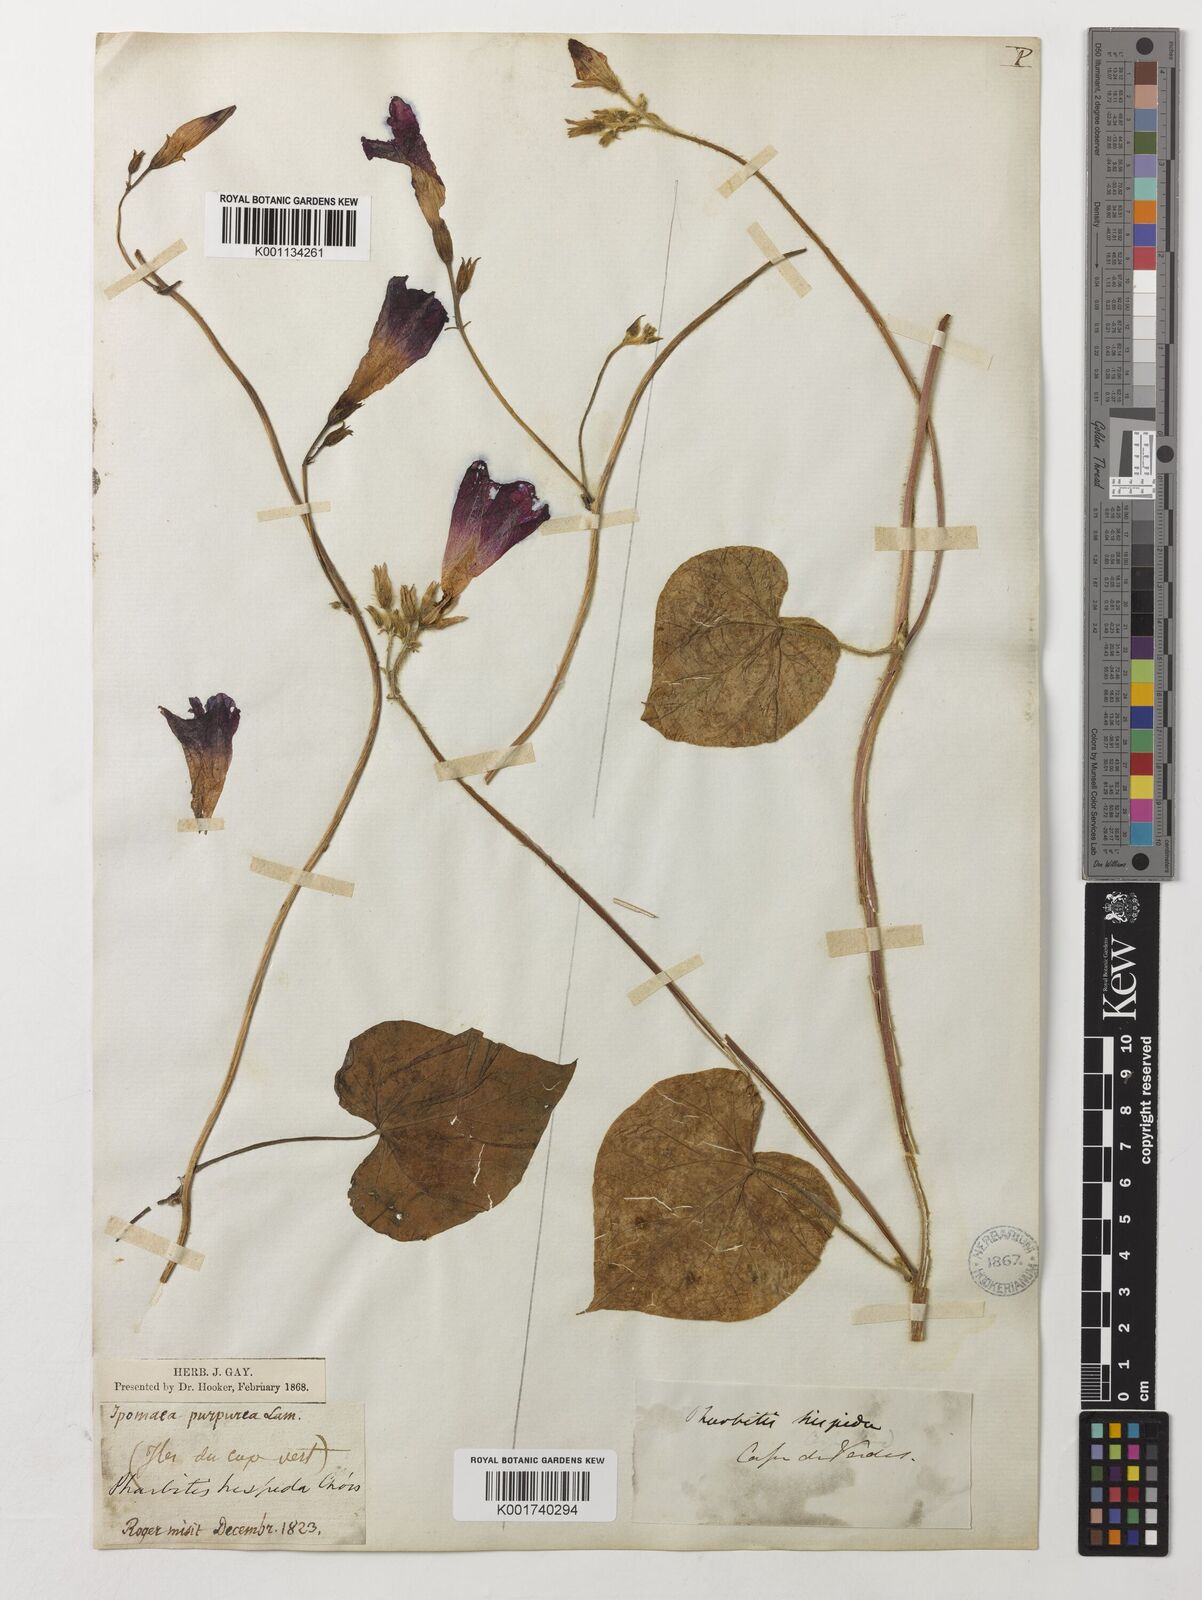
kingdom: Plantae
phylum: Tracheophyta
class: Magnoliopsida
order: Solanales
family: Convolvulaceae
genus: Ipomoea
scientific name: Ipomoea purpurea
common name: Common morning-glory
